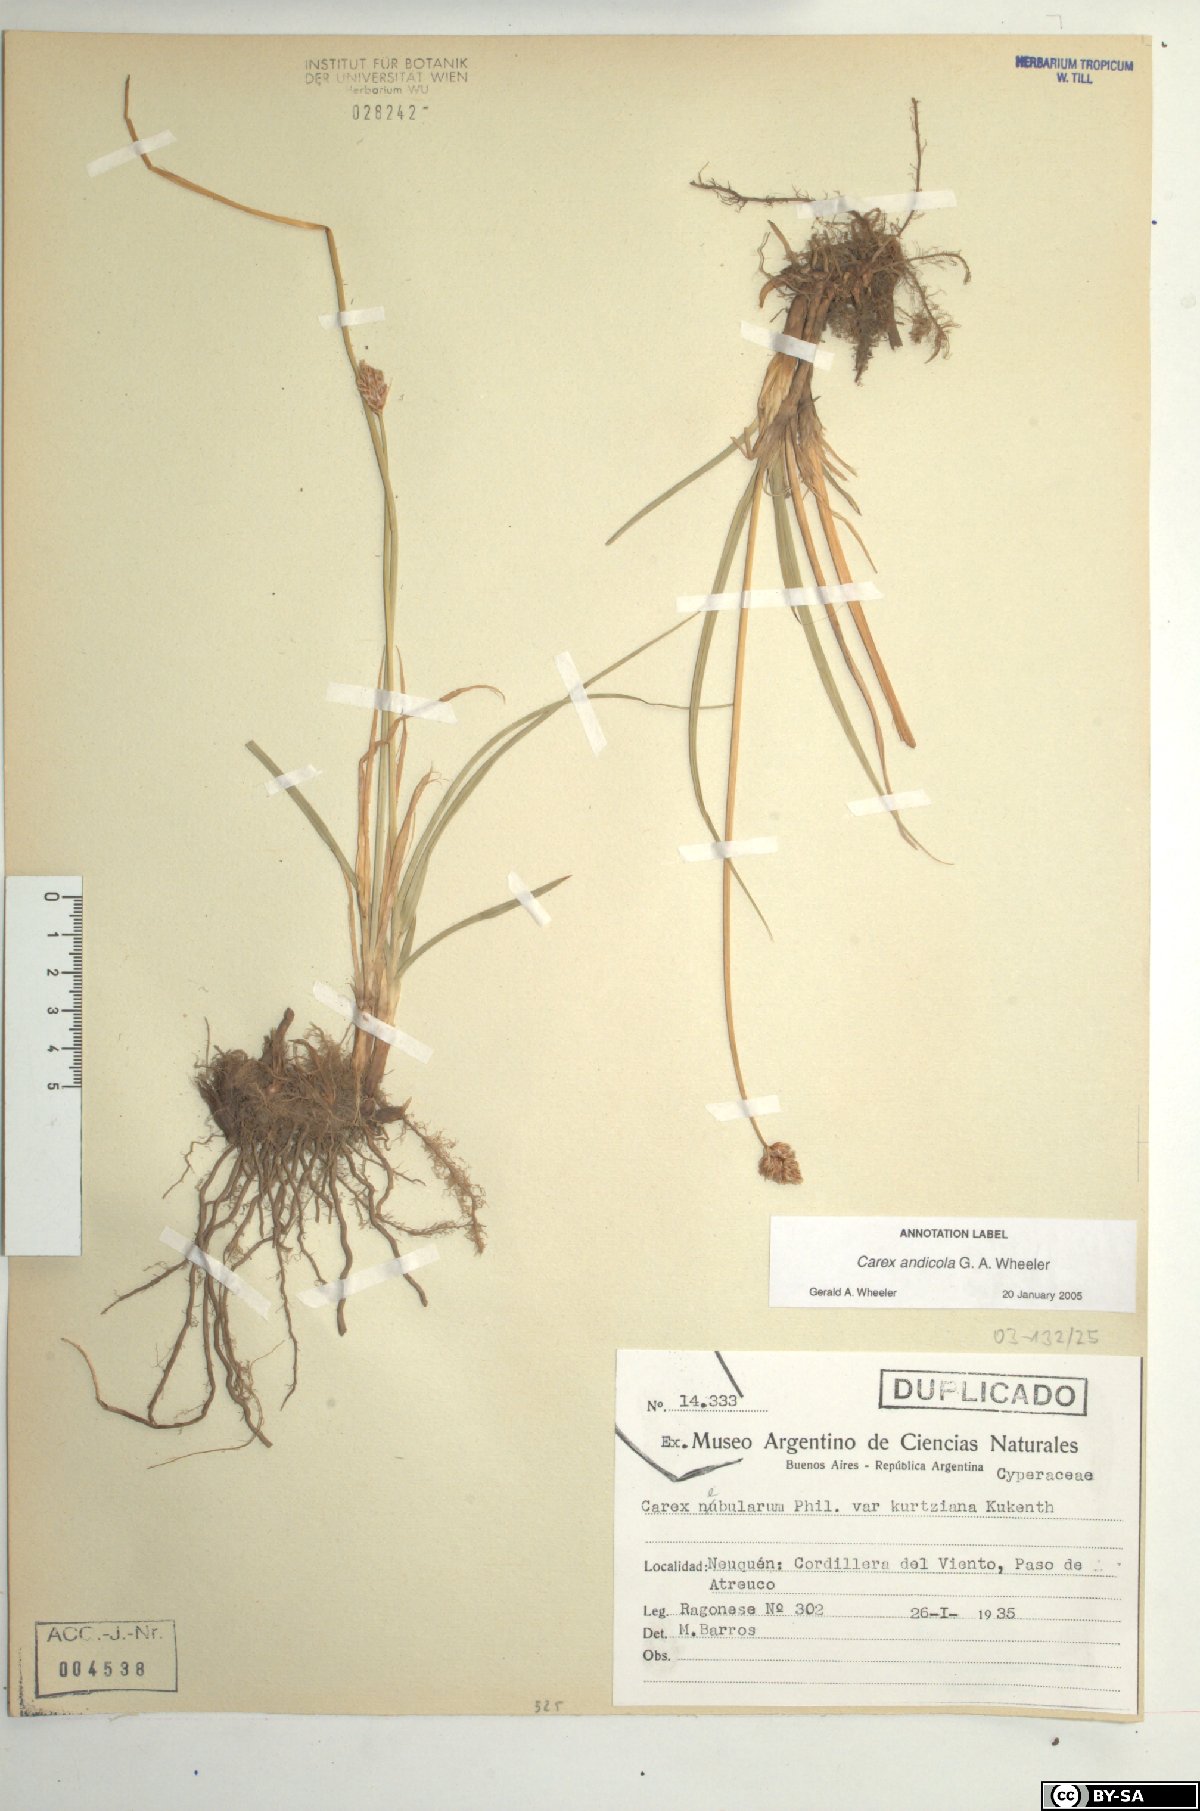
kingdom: Plantae
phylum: Tracheophyta
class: Liliopsida
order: Poales
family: Cyperaceae
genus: Carex
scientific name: Carex firmicaulis
